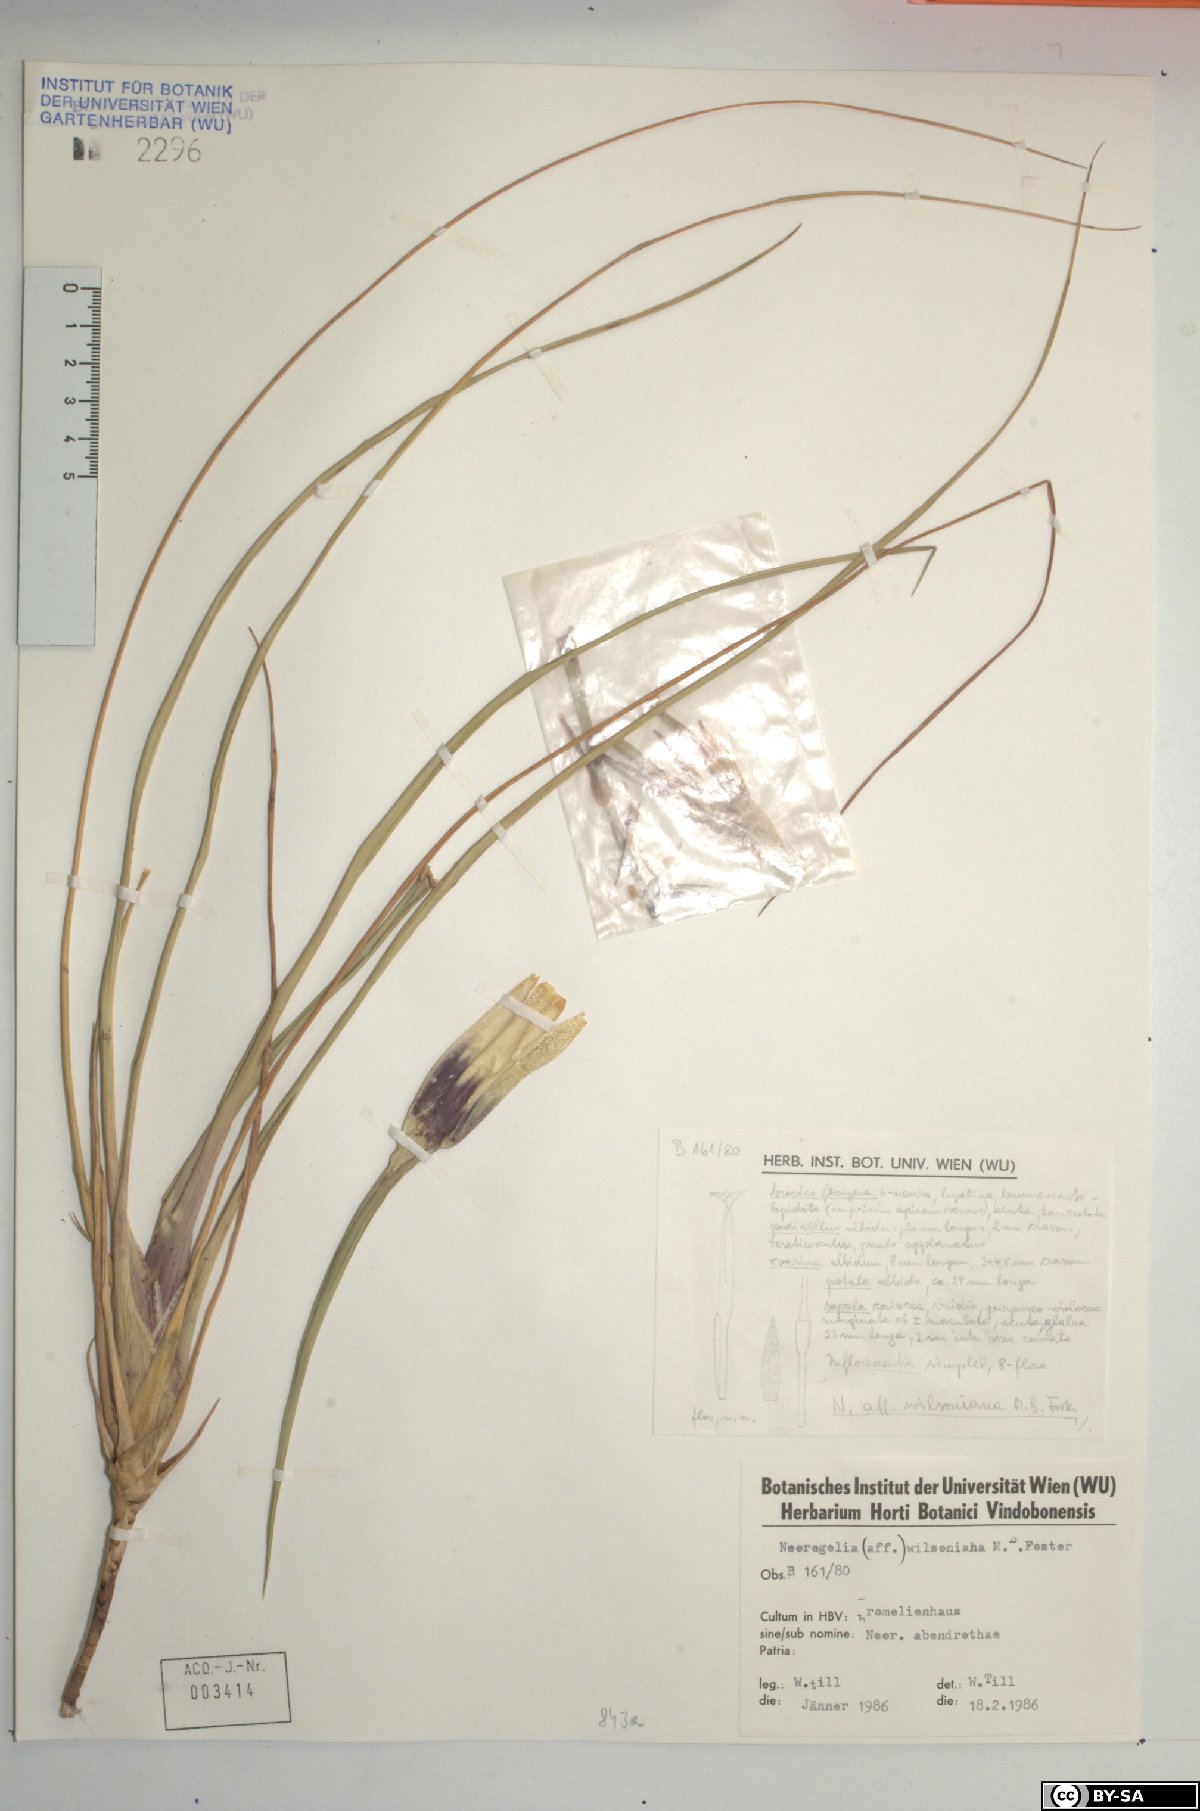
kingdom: Plantae
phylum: Tracheophyta
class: Liliopsida
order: Poales
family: Bromeliaceae
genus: Neoregelia
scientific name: Neoregelia wilsoniana
